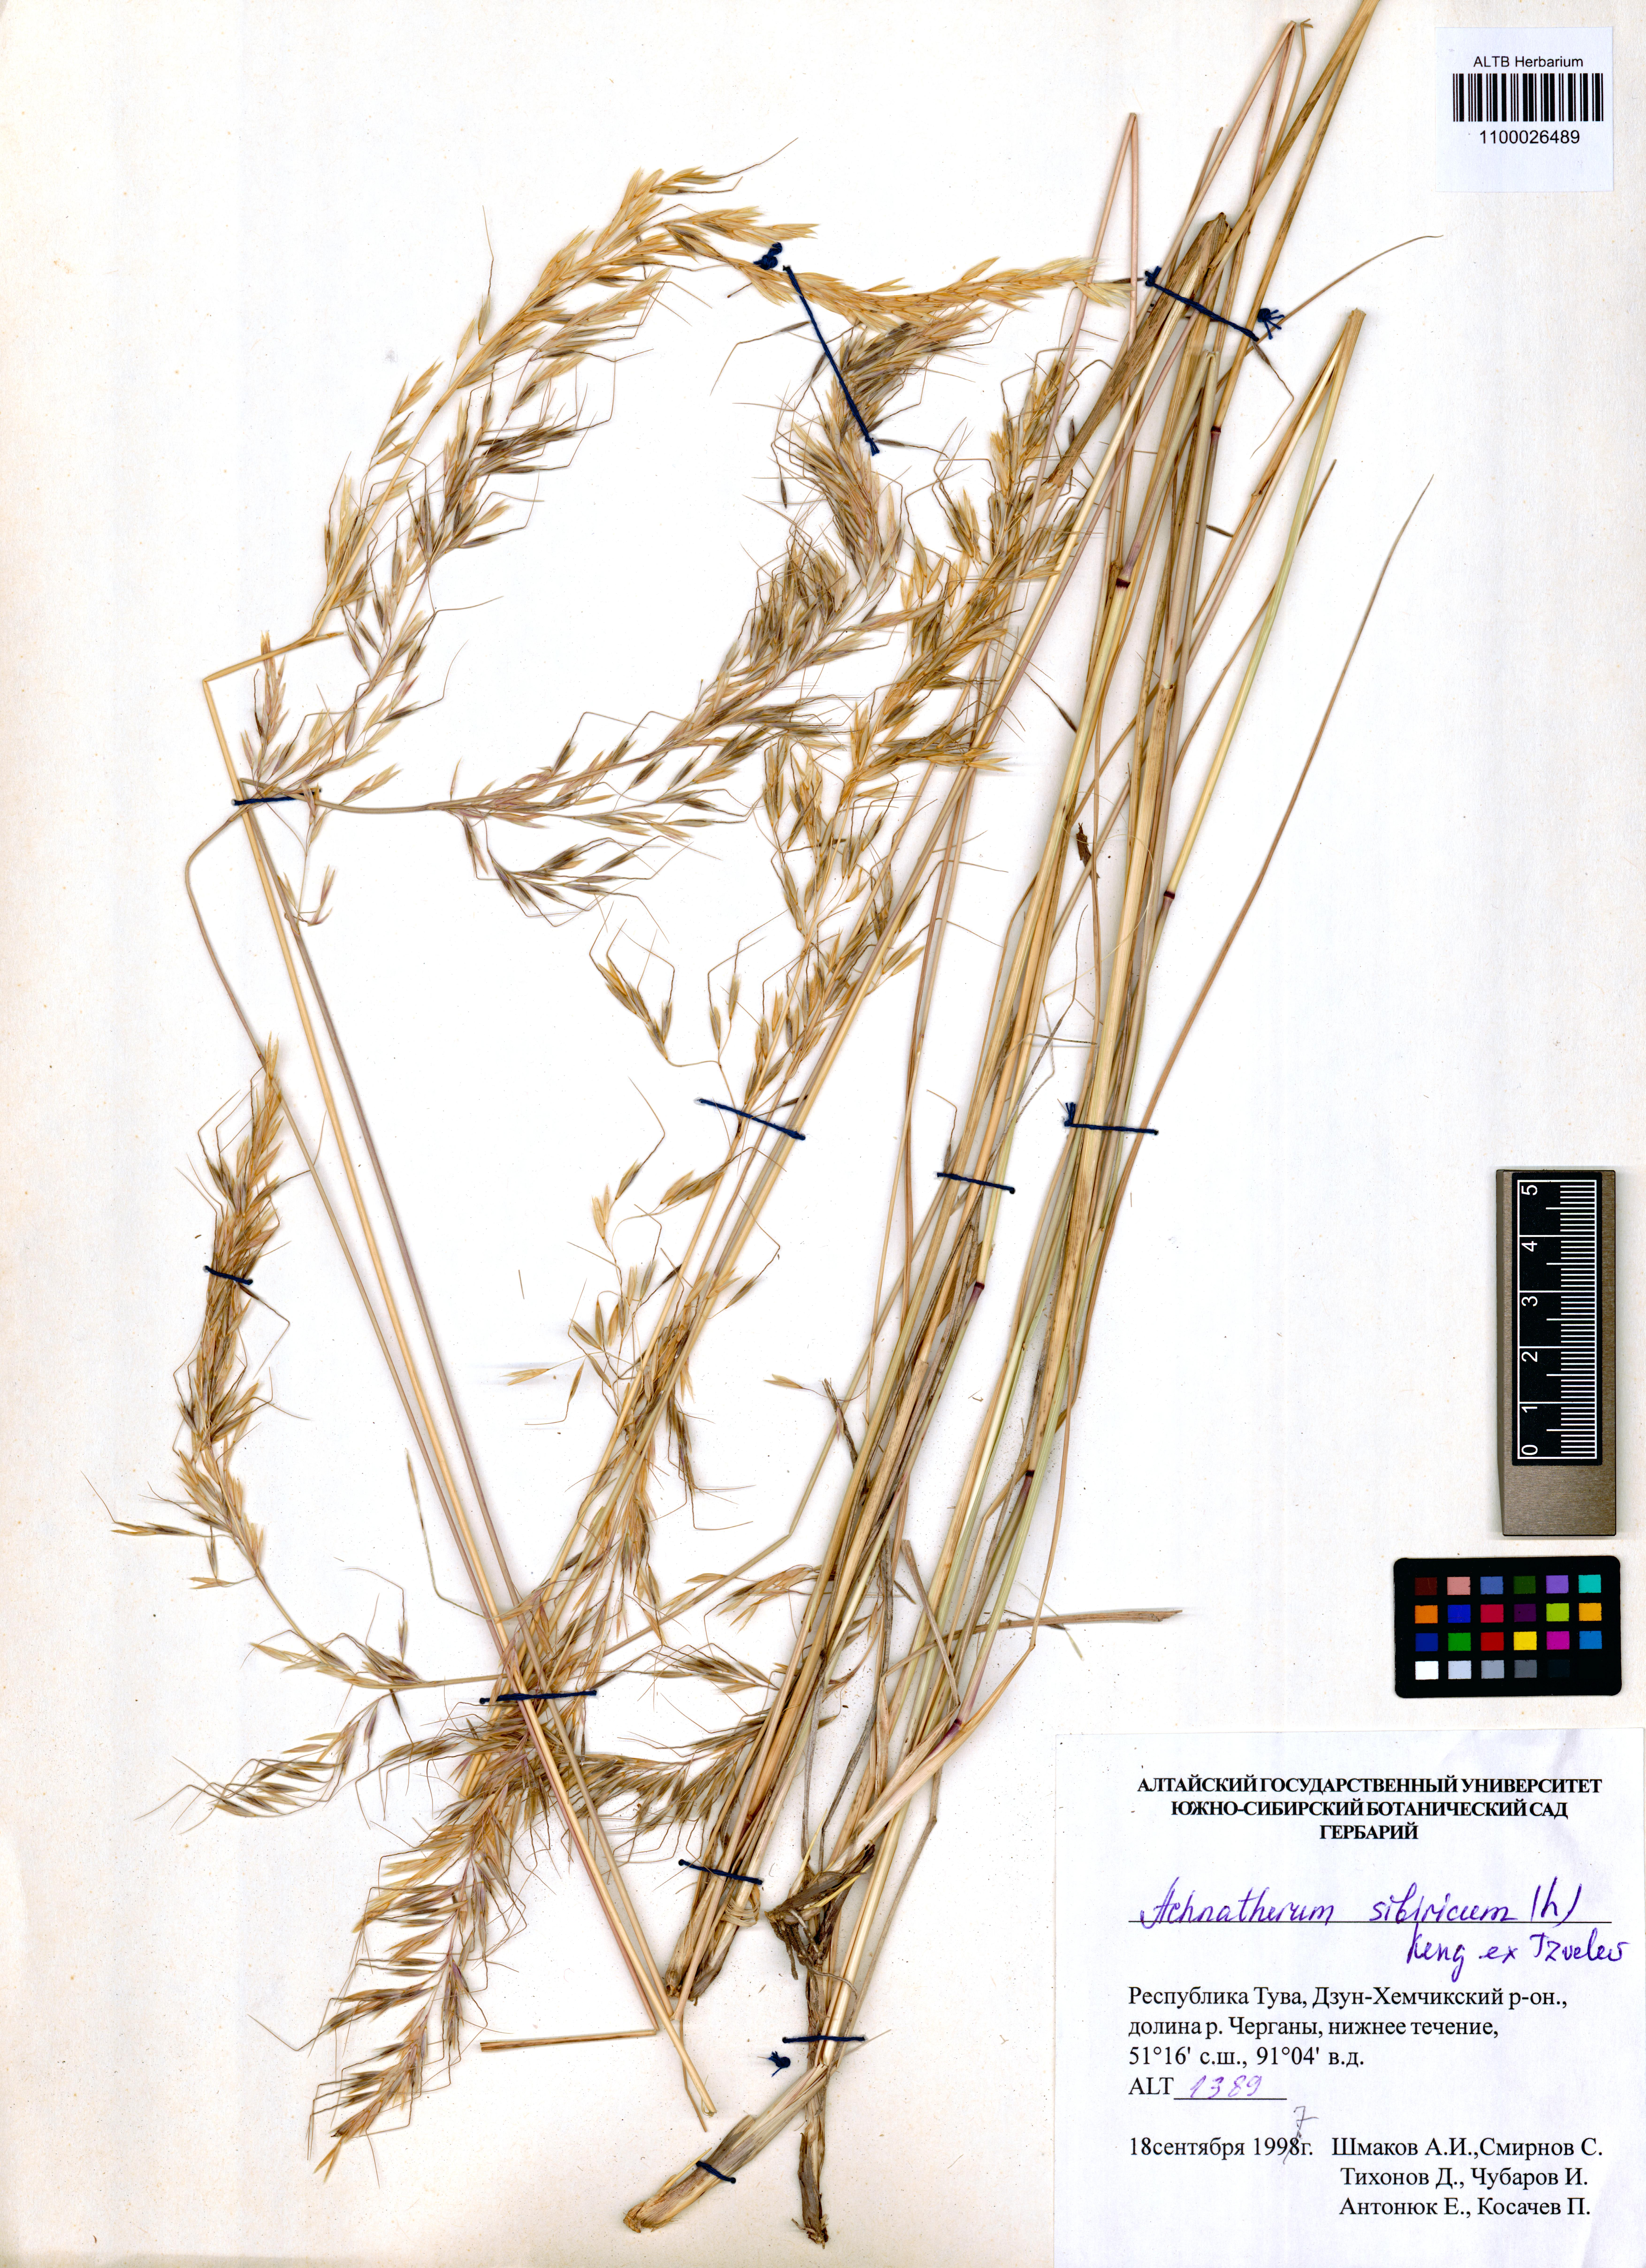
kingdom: Plantae
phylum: Tracheophyta
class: Liliopsida
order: Poales
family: Poaceae
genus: Achnatherum
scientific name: Achnatherum sibiricum
